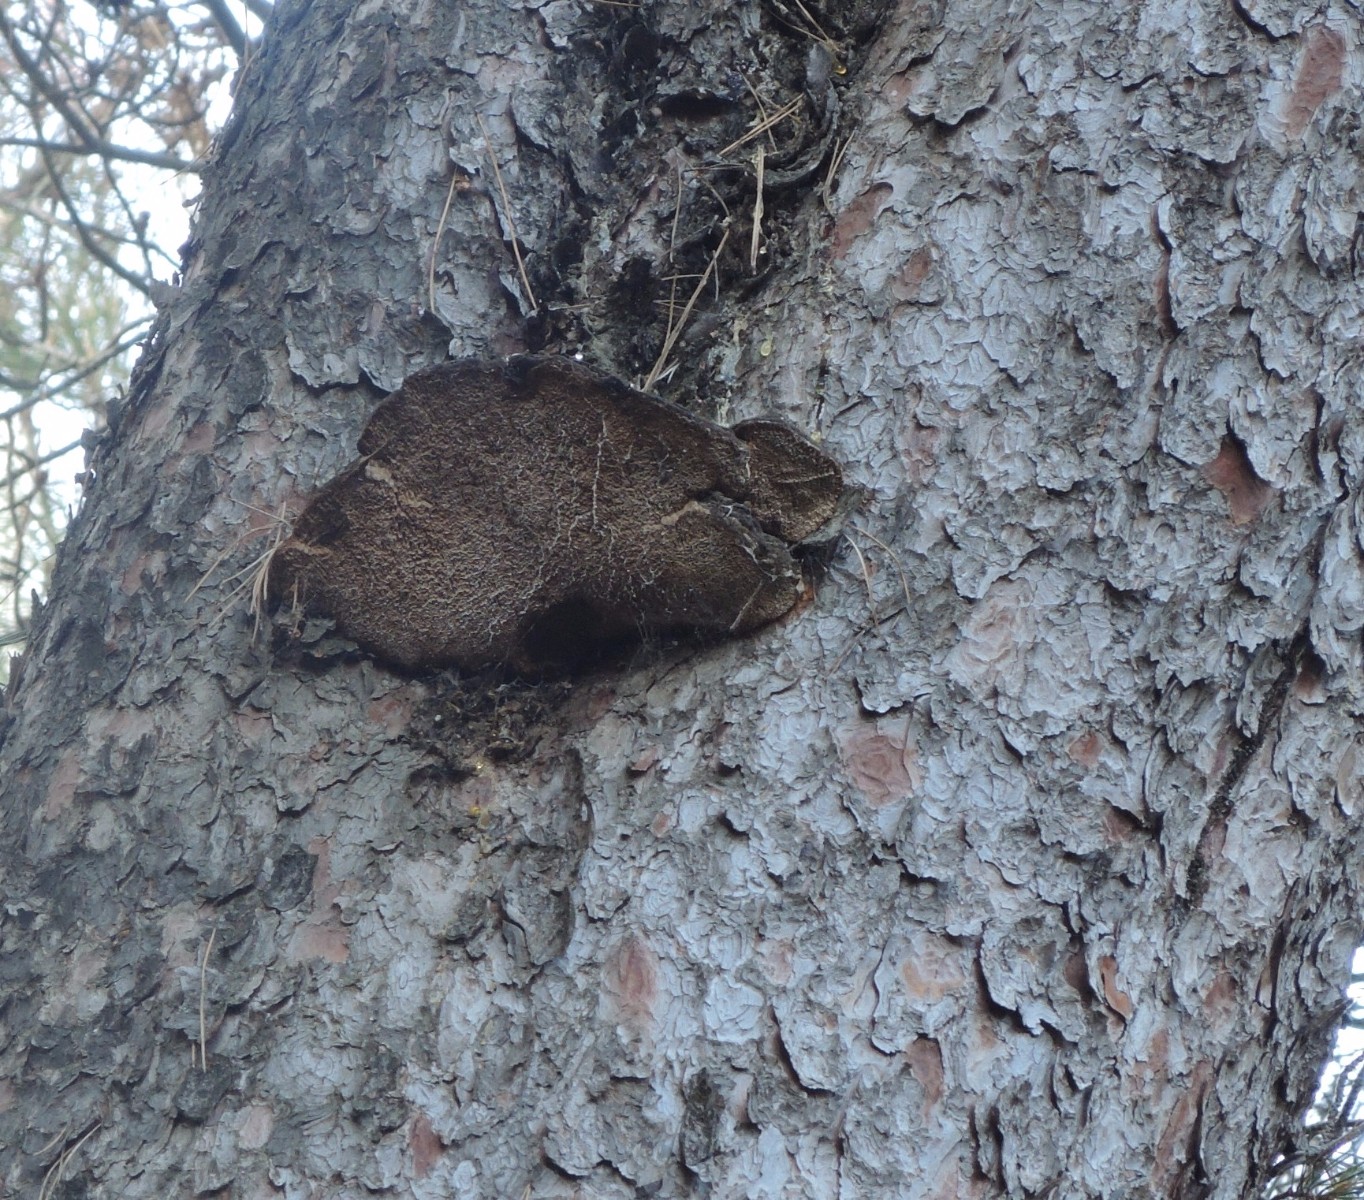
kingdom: Fungi
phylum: Basidiomycota
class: Agaricomycetes
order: Hymenochaetales
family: Hymenochaetaceae
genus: Porodaedalea
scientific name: Porodaedalea pini
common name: fyrre-ildporesvamp
